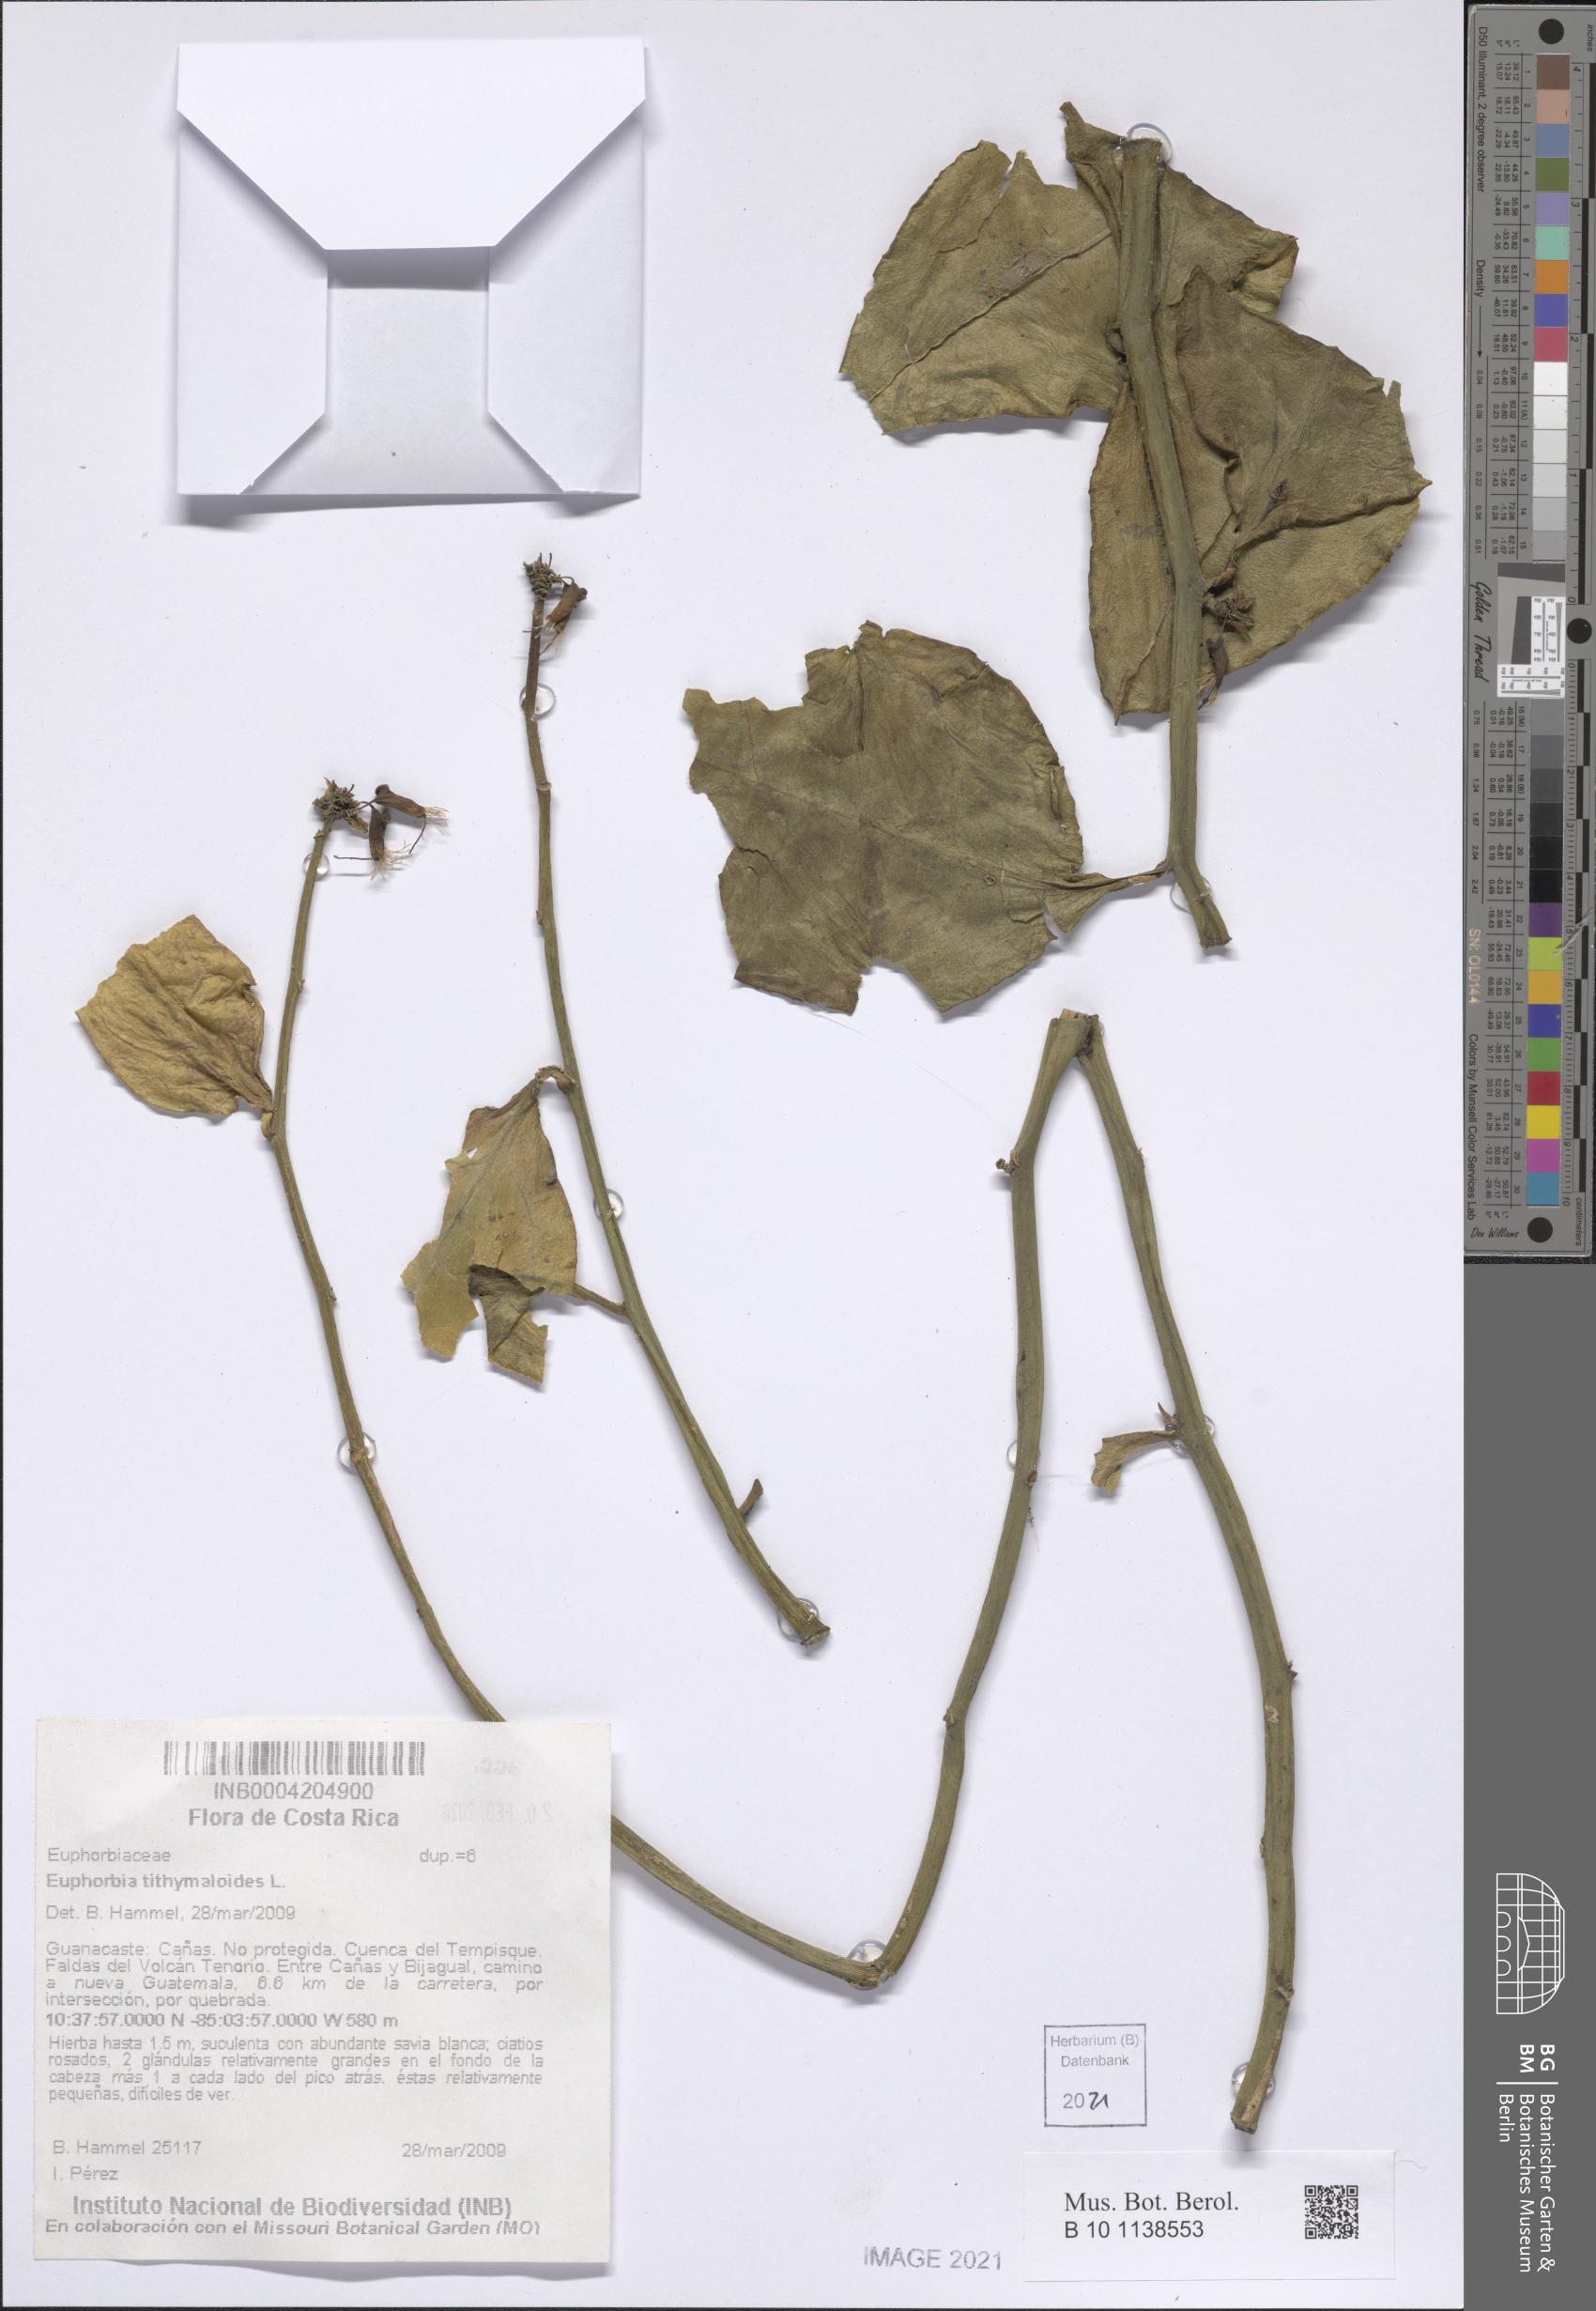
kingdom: Plantae
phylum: Tracheophyta
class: Magnoliopsida
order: Malpighiales
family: Euphorbiaceae
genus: Euphorbia
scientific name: Euphorbia tithymaloides
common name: Slipperplant
